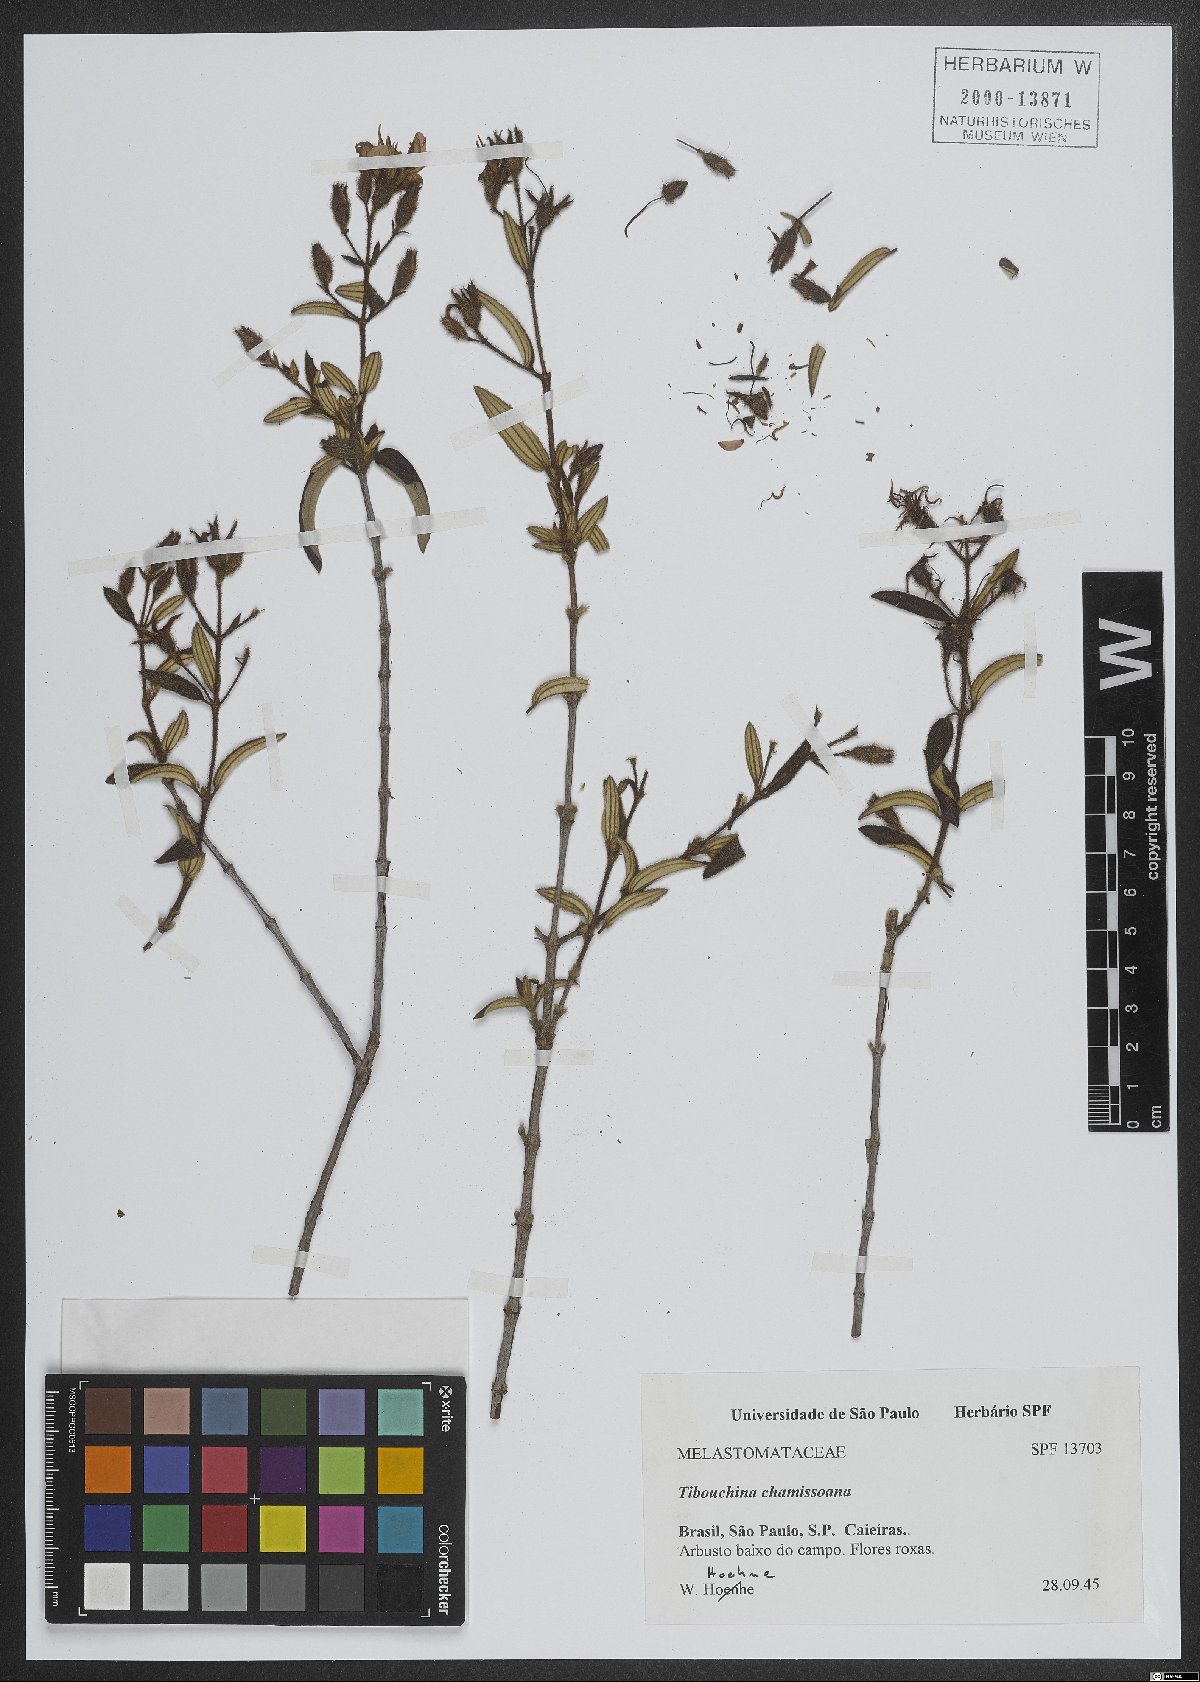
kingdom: Plantae
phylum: Tracheophyta
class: Magnoliopsida
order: Myrtales
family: Melastomataceae
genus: Pleroma
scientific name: Pleroma molle
